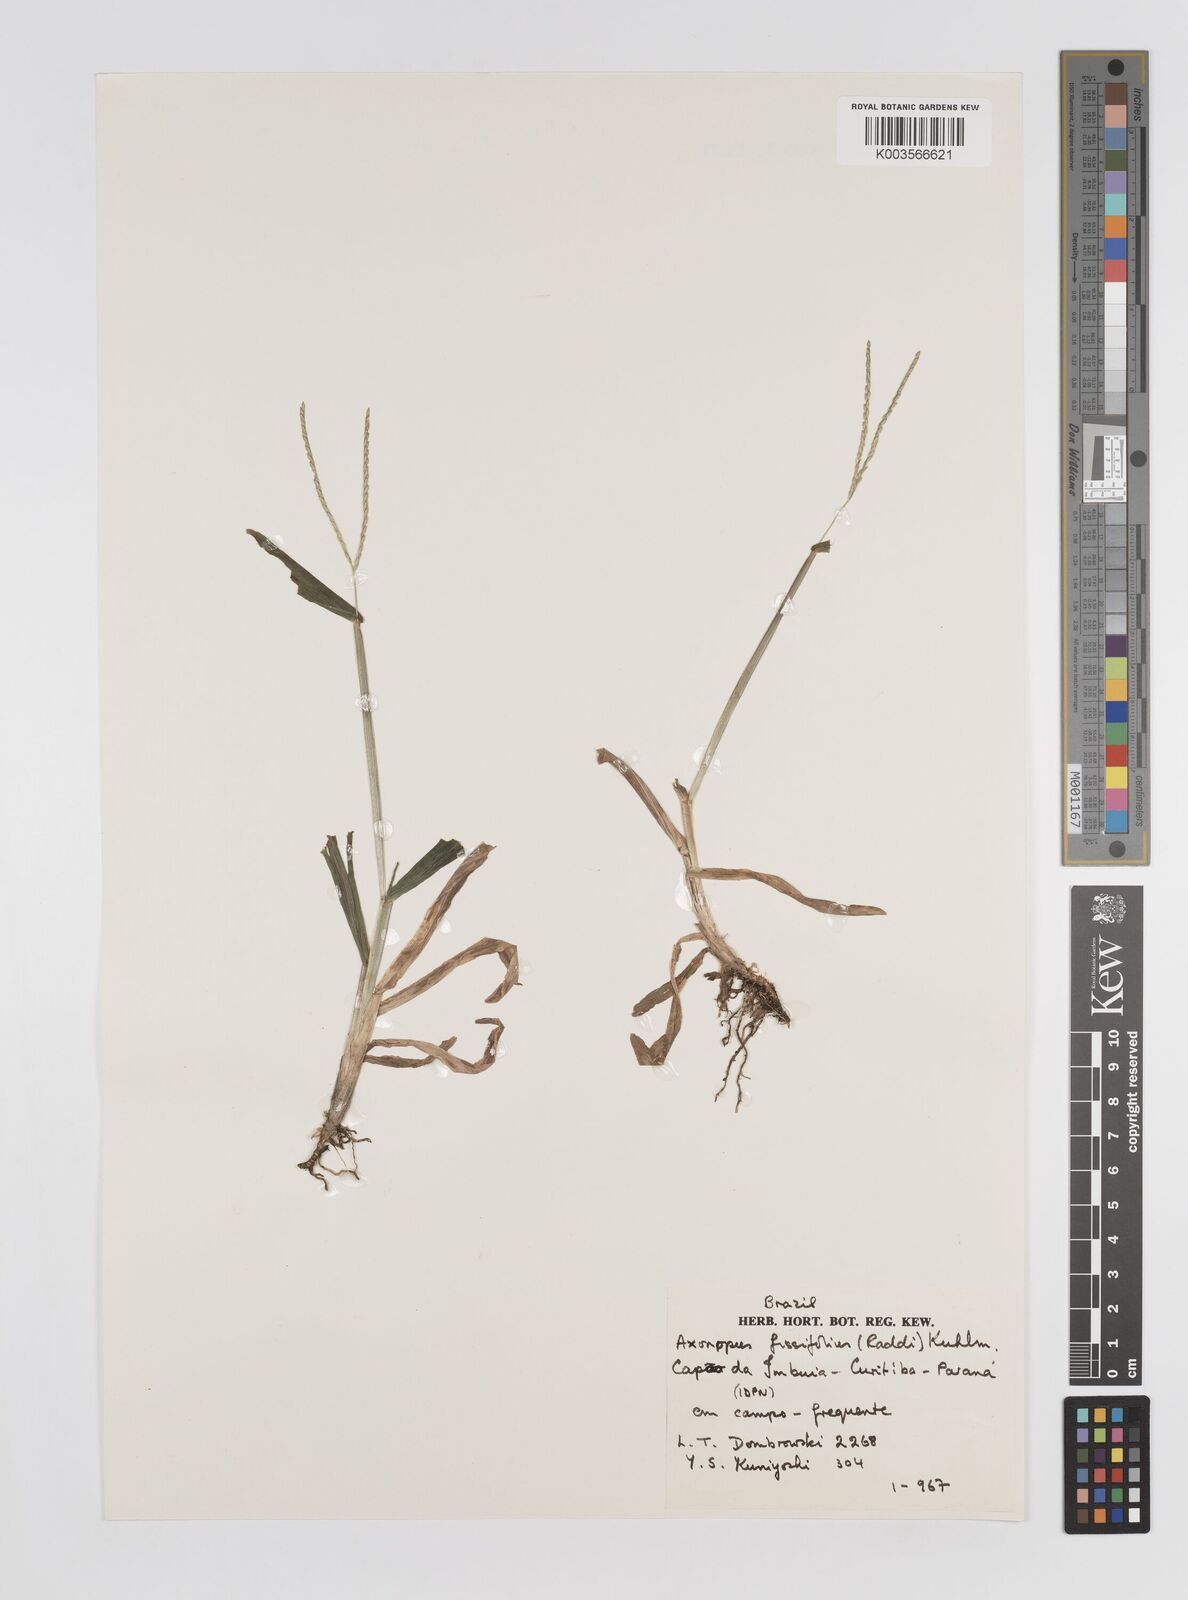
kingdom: Plantae
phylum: Tracheophyta
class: Liliopsida
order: Poales
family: Poaceae
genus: Axonopus
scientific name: Axonopus compressus
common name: American carpet grass
